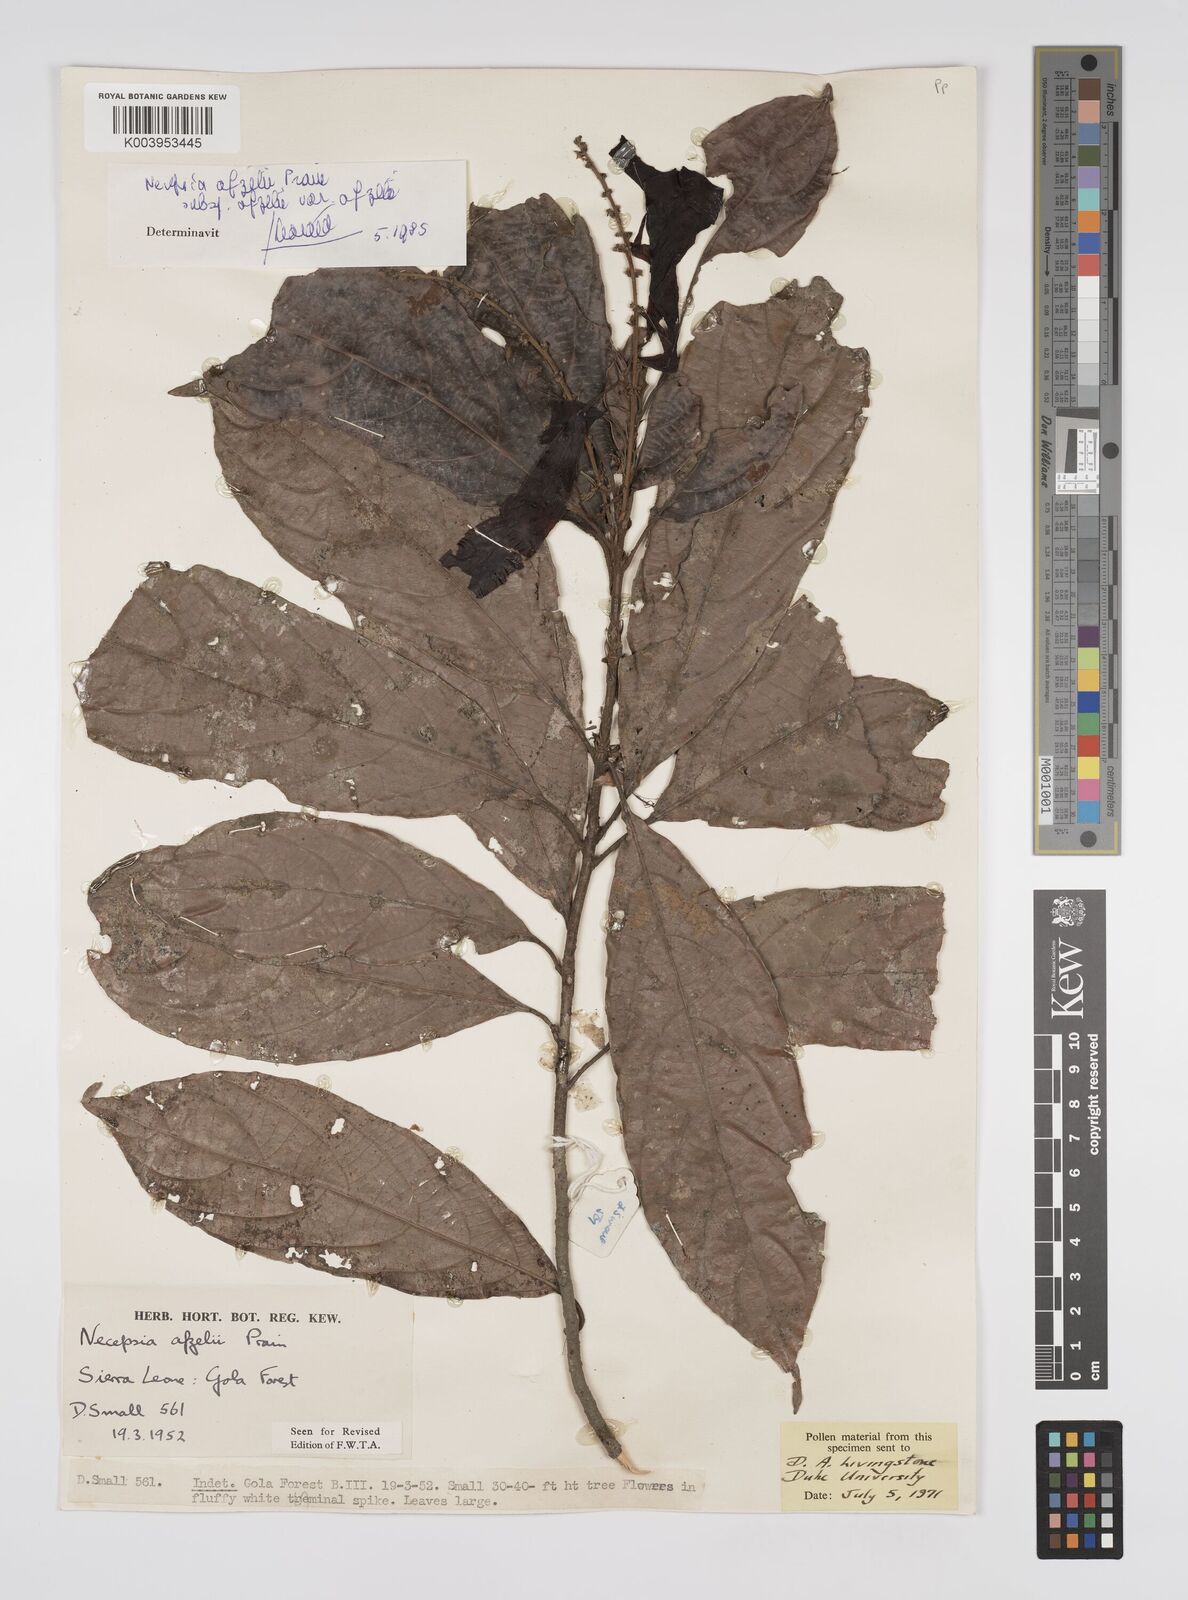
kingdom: Plantae
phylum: Tracheophyta
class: Magnoliopsida
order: Malpighiales
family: Euphorbiaceae
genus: Necepsia
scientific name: Necepsia afzelii
